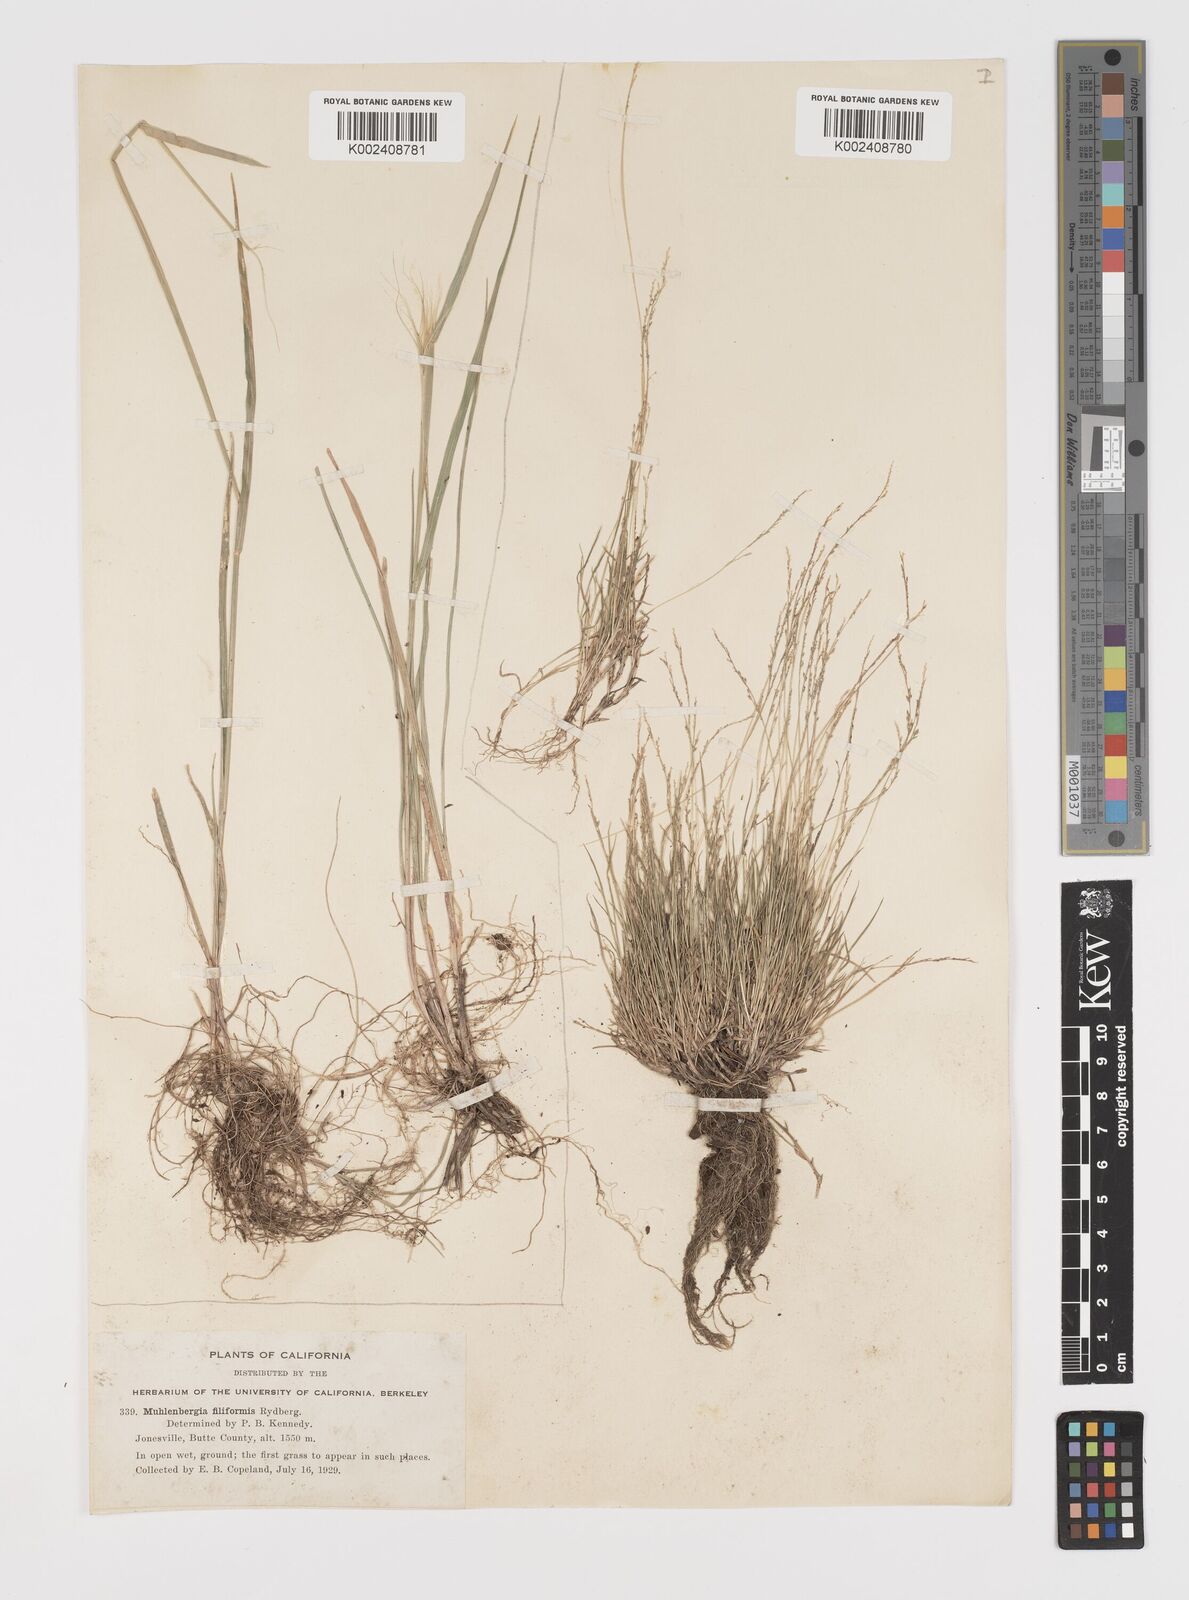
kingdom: Plantae
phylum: Tracheophyta
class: Liliopsida
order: Poales
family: Poaceae
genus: Leptochloa
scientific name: Leptochloa mucronata
